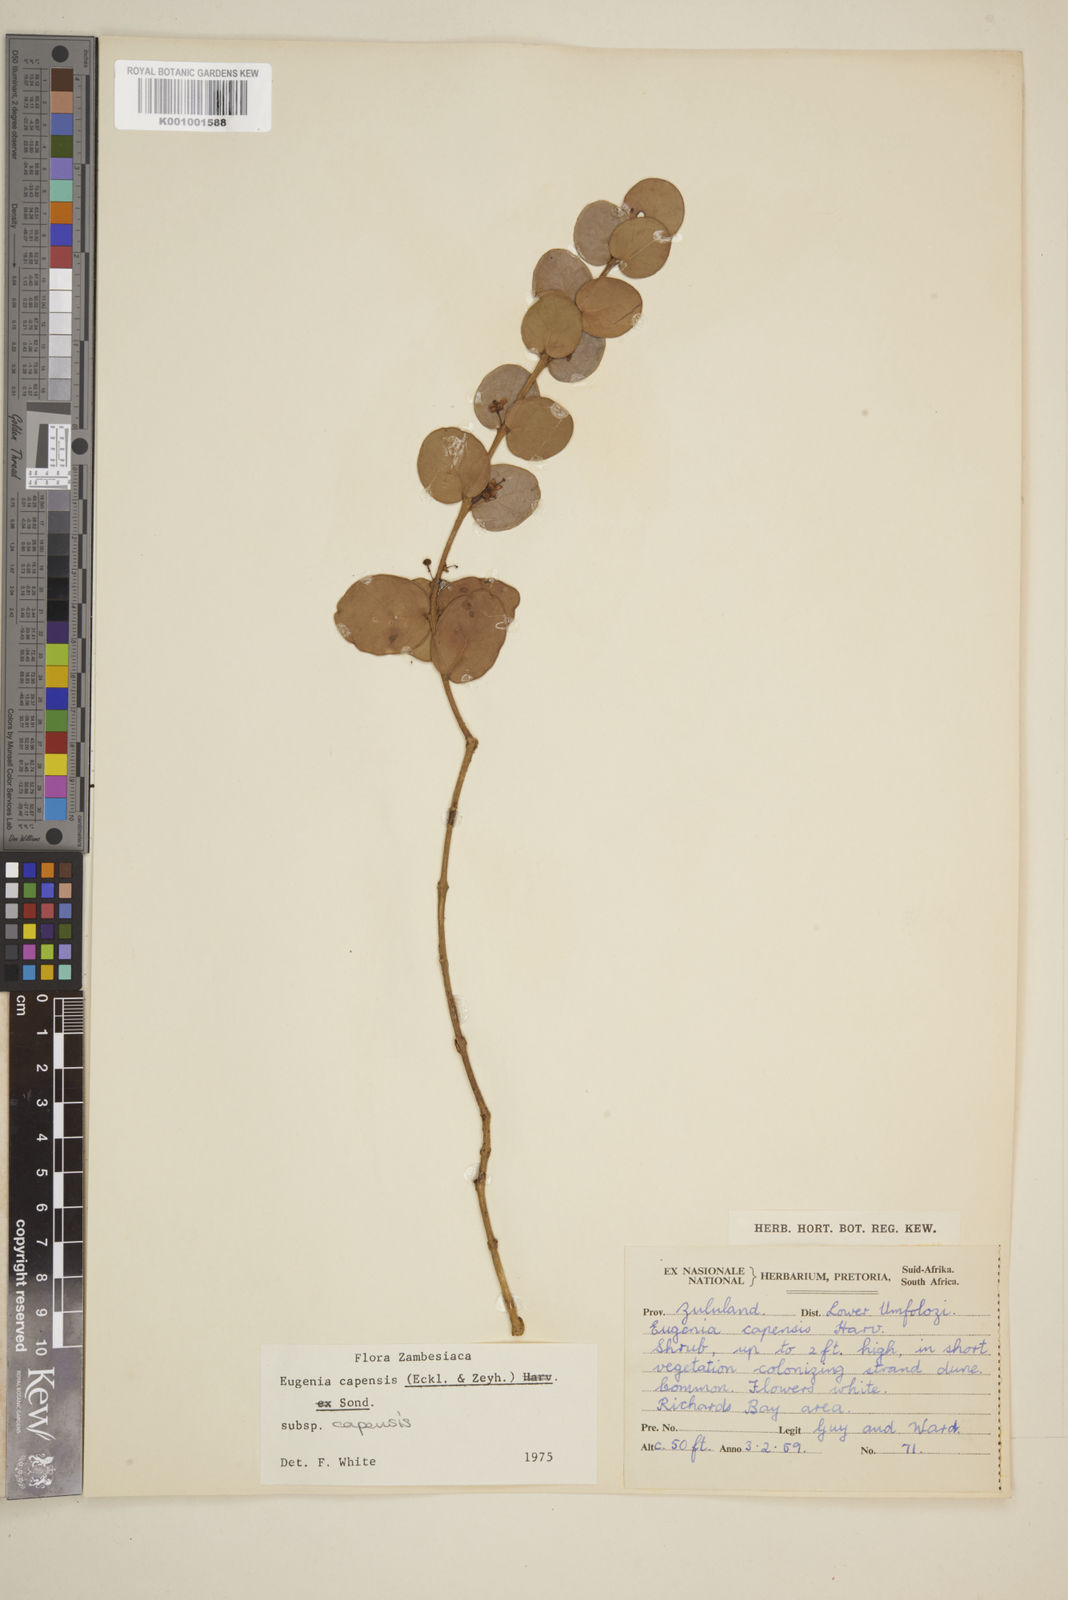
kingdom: Plantae
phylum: Tracheophyta
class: Magnoliopsida
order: Myrtales
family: Myrtaceae
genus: Eugenia
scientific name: Eugenia capensis
